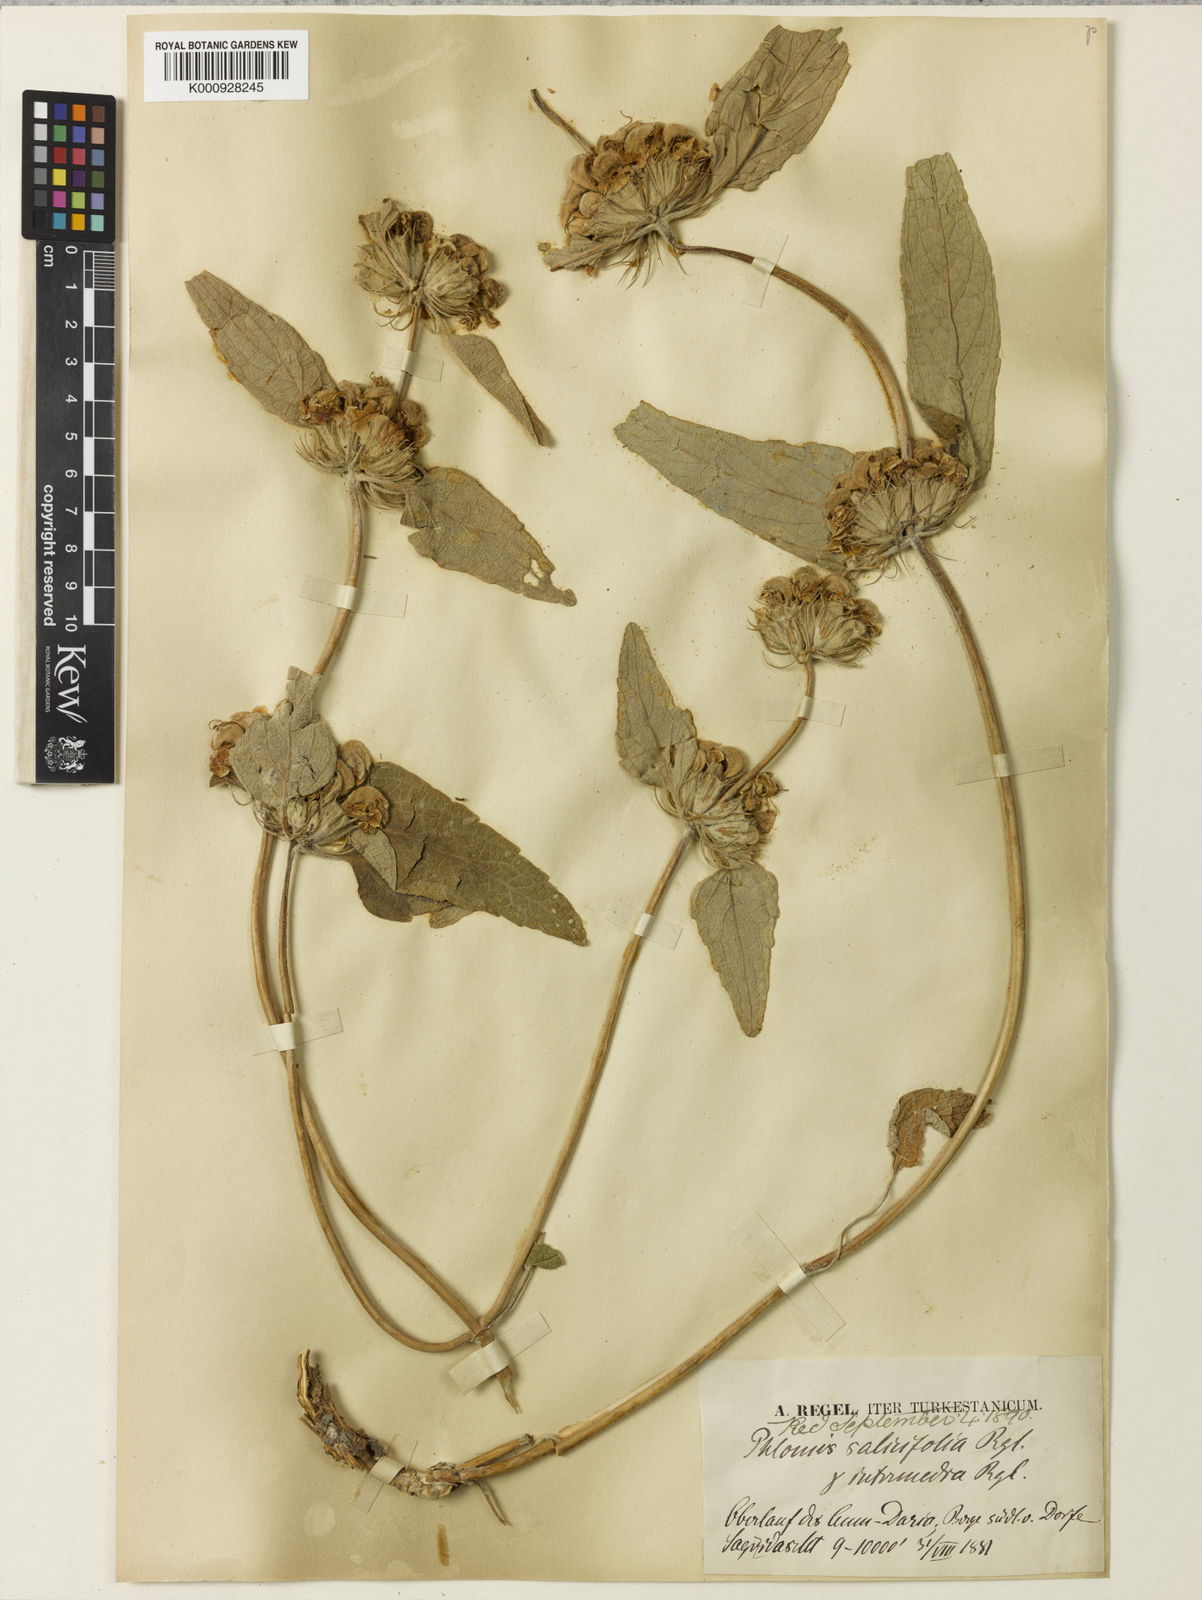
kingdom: Plantae
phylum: Tracheophyta
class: Magnoliopsida
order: Lamiales
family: Lamiaceae
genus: Phlomis
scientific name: Phlomis fruticetorum
